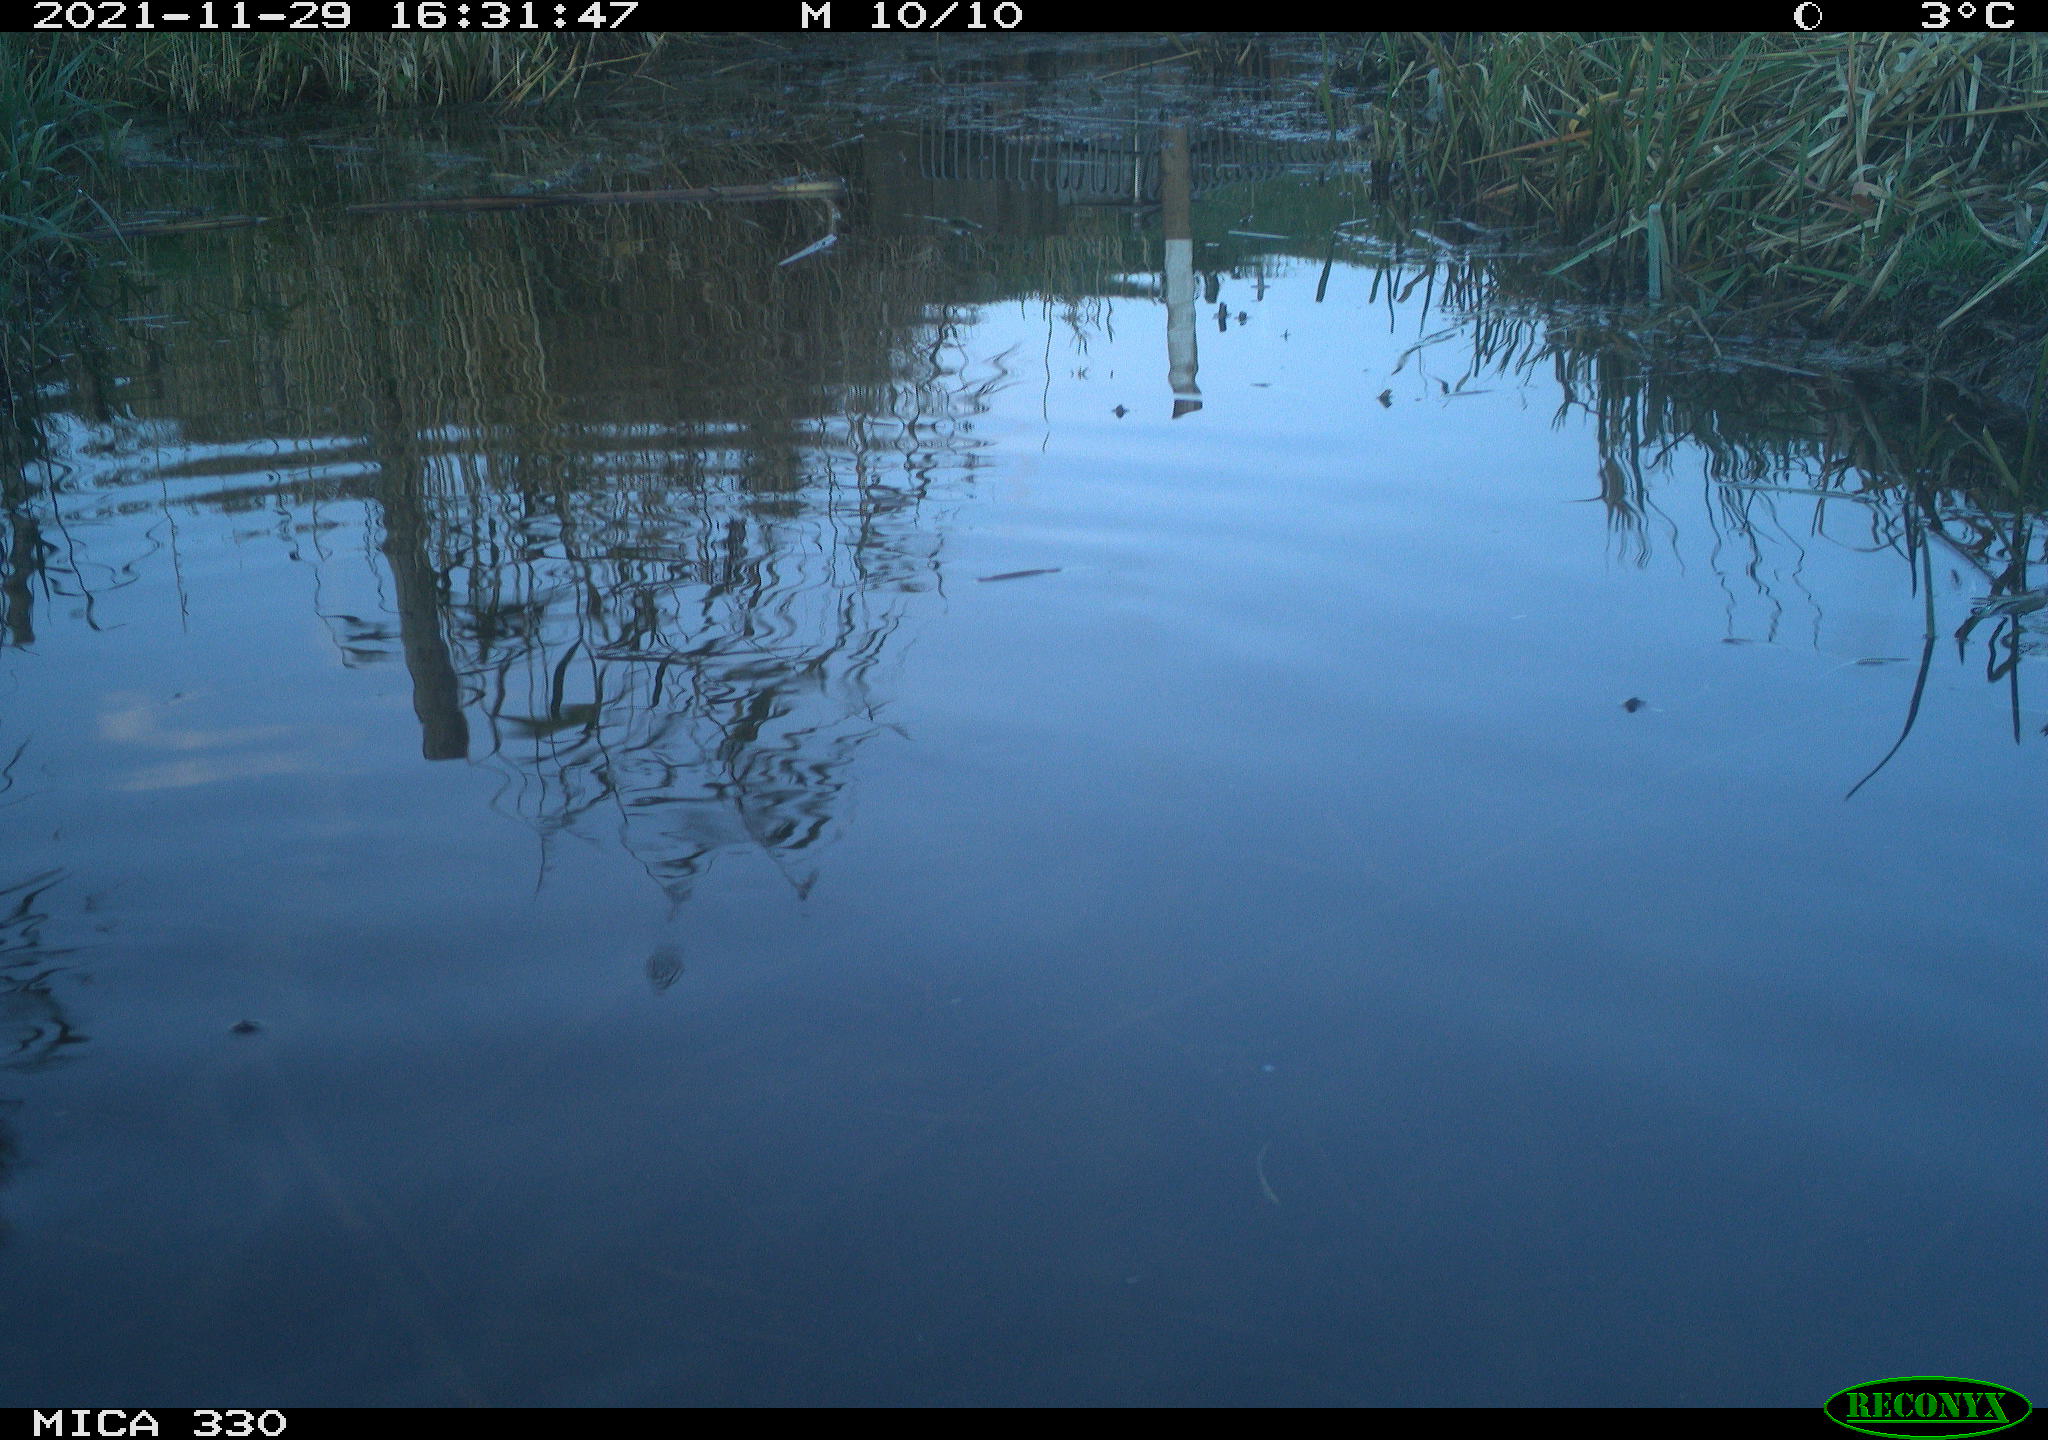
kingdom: Animalia
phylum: Chordata
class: Aves
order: Anseriformes
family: Anatidae
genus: Anas
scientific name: Anas platyrhynchos
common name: Mallard
